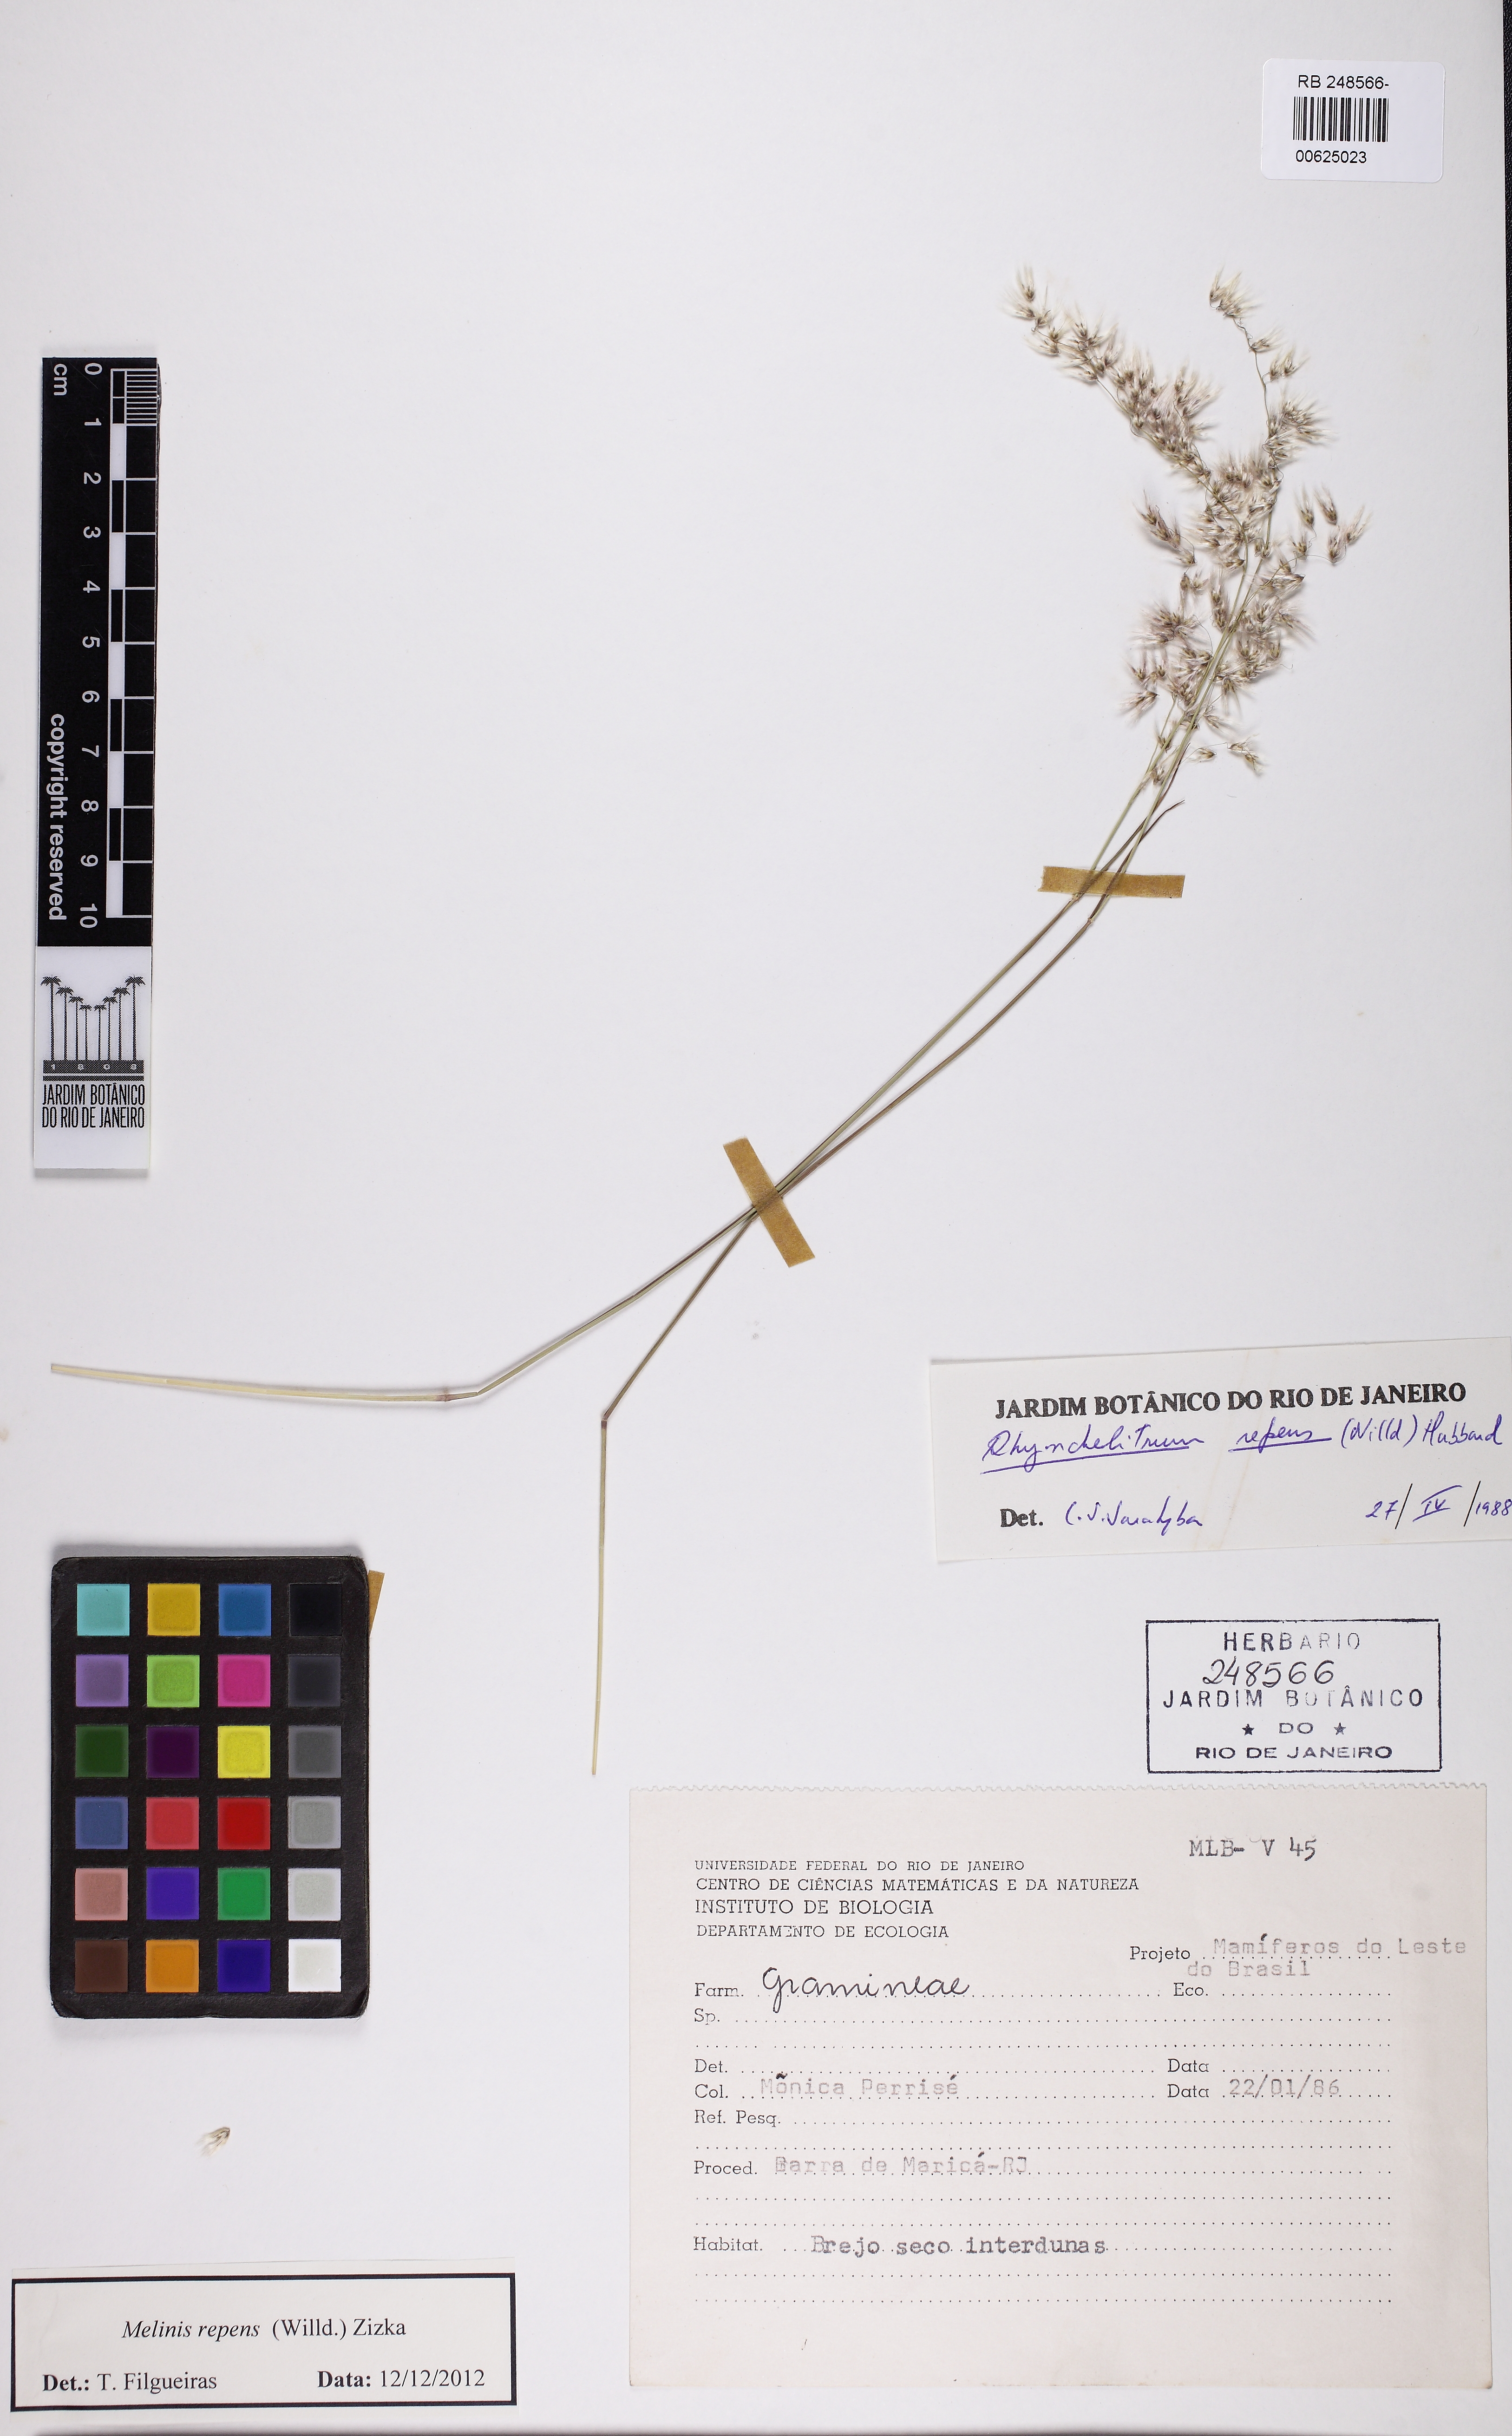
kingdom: Plantae
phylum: Tracheophyta
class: Liliopsida
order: Poales
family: Poaceae
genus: Melinis
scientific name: Melinis repens
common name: Rose natal grass
